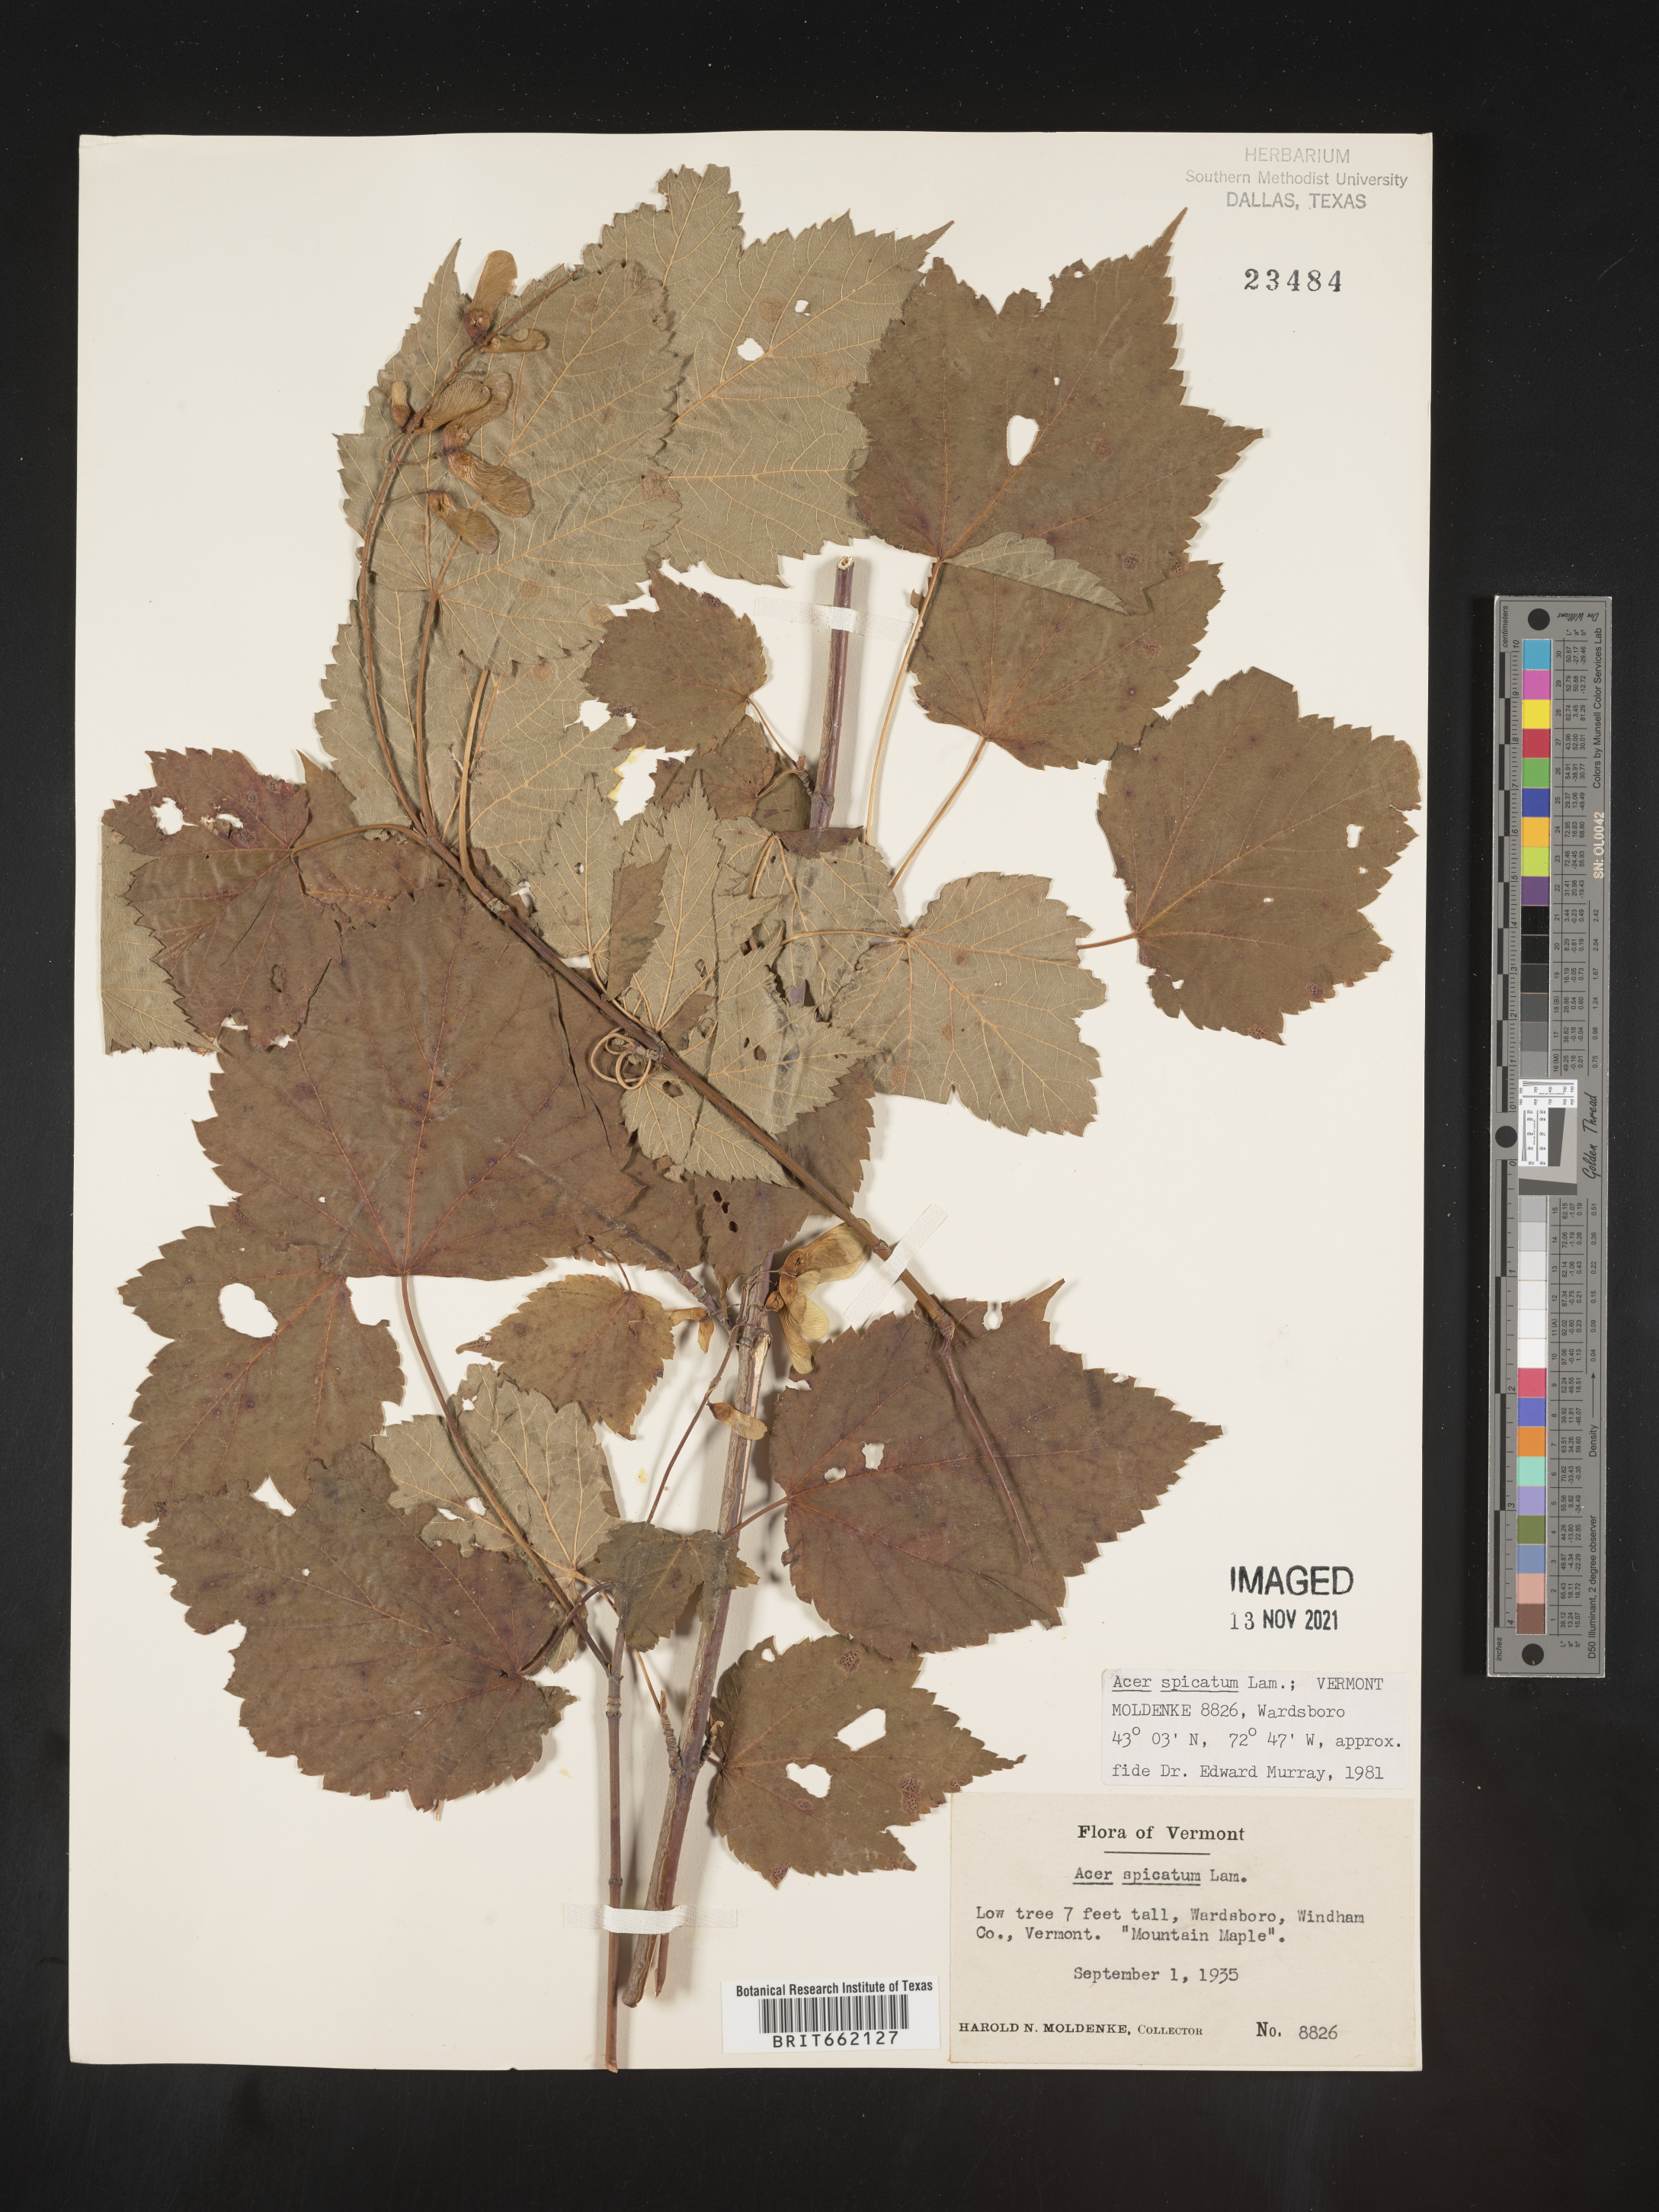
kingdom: Plantae
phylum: Tracheophyta
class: Magnoliopsida
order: Sapindales
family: Sapindaceae
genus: Acer
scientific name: Acer spicatum
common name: Mountain maple
